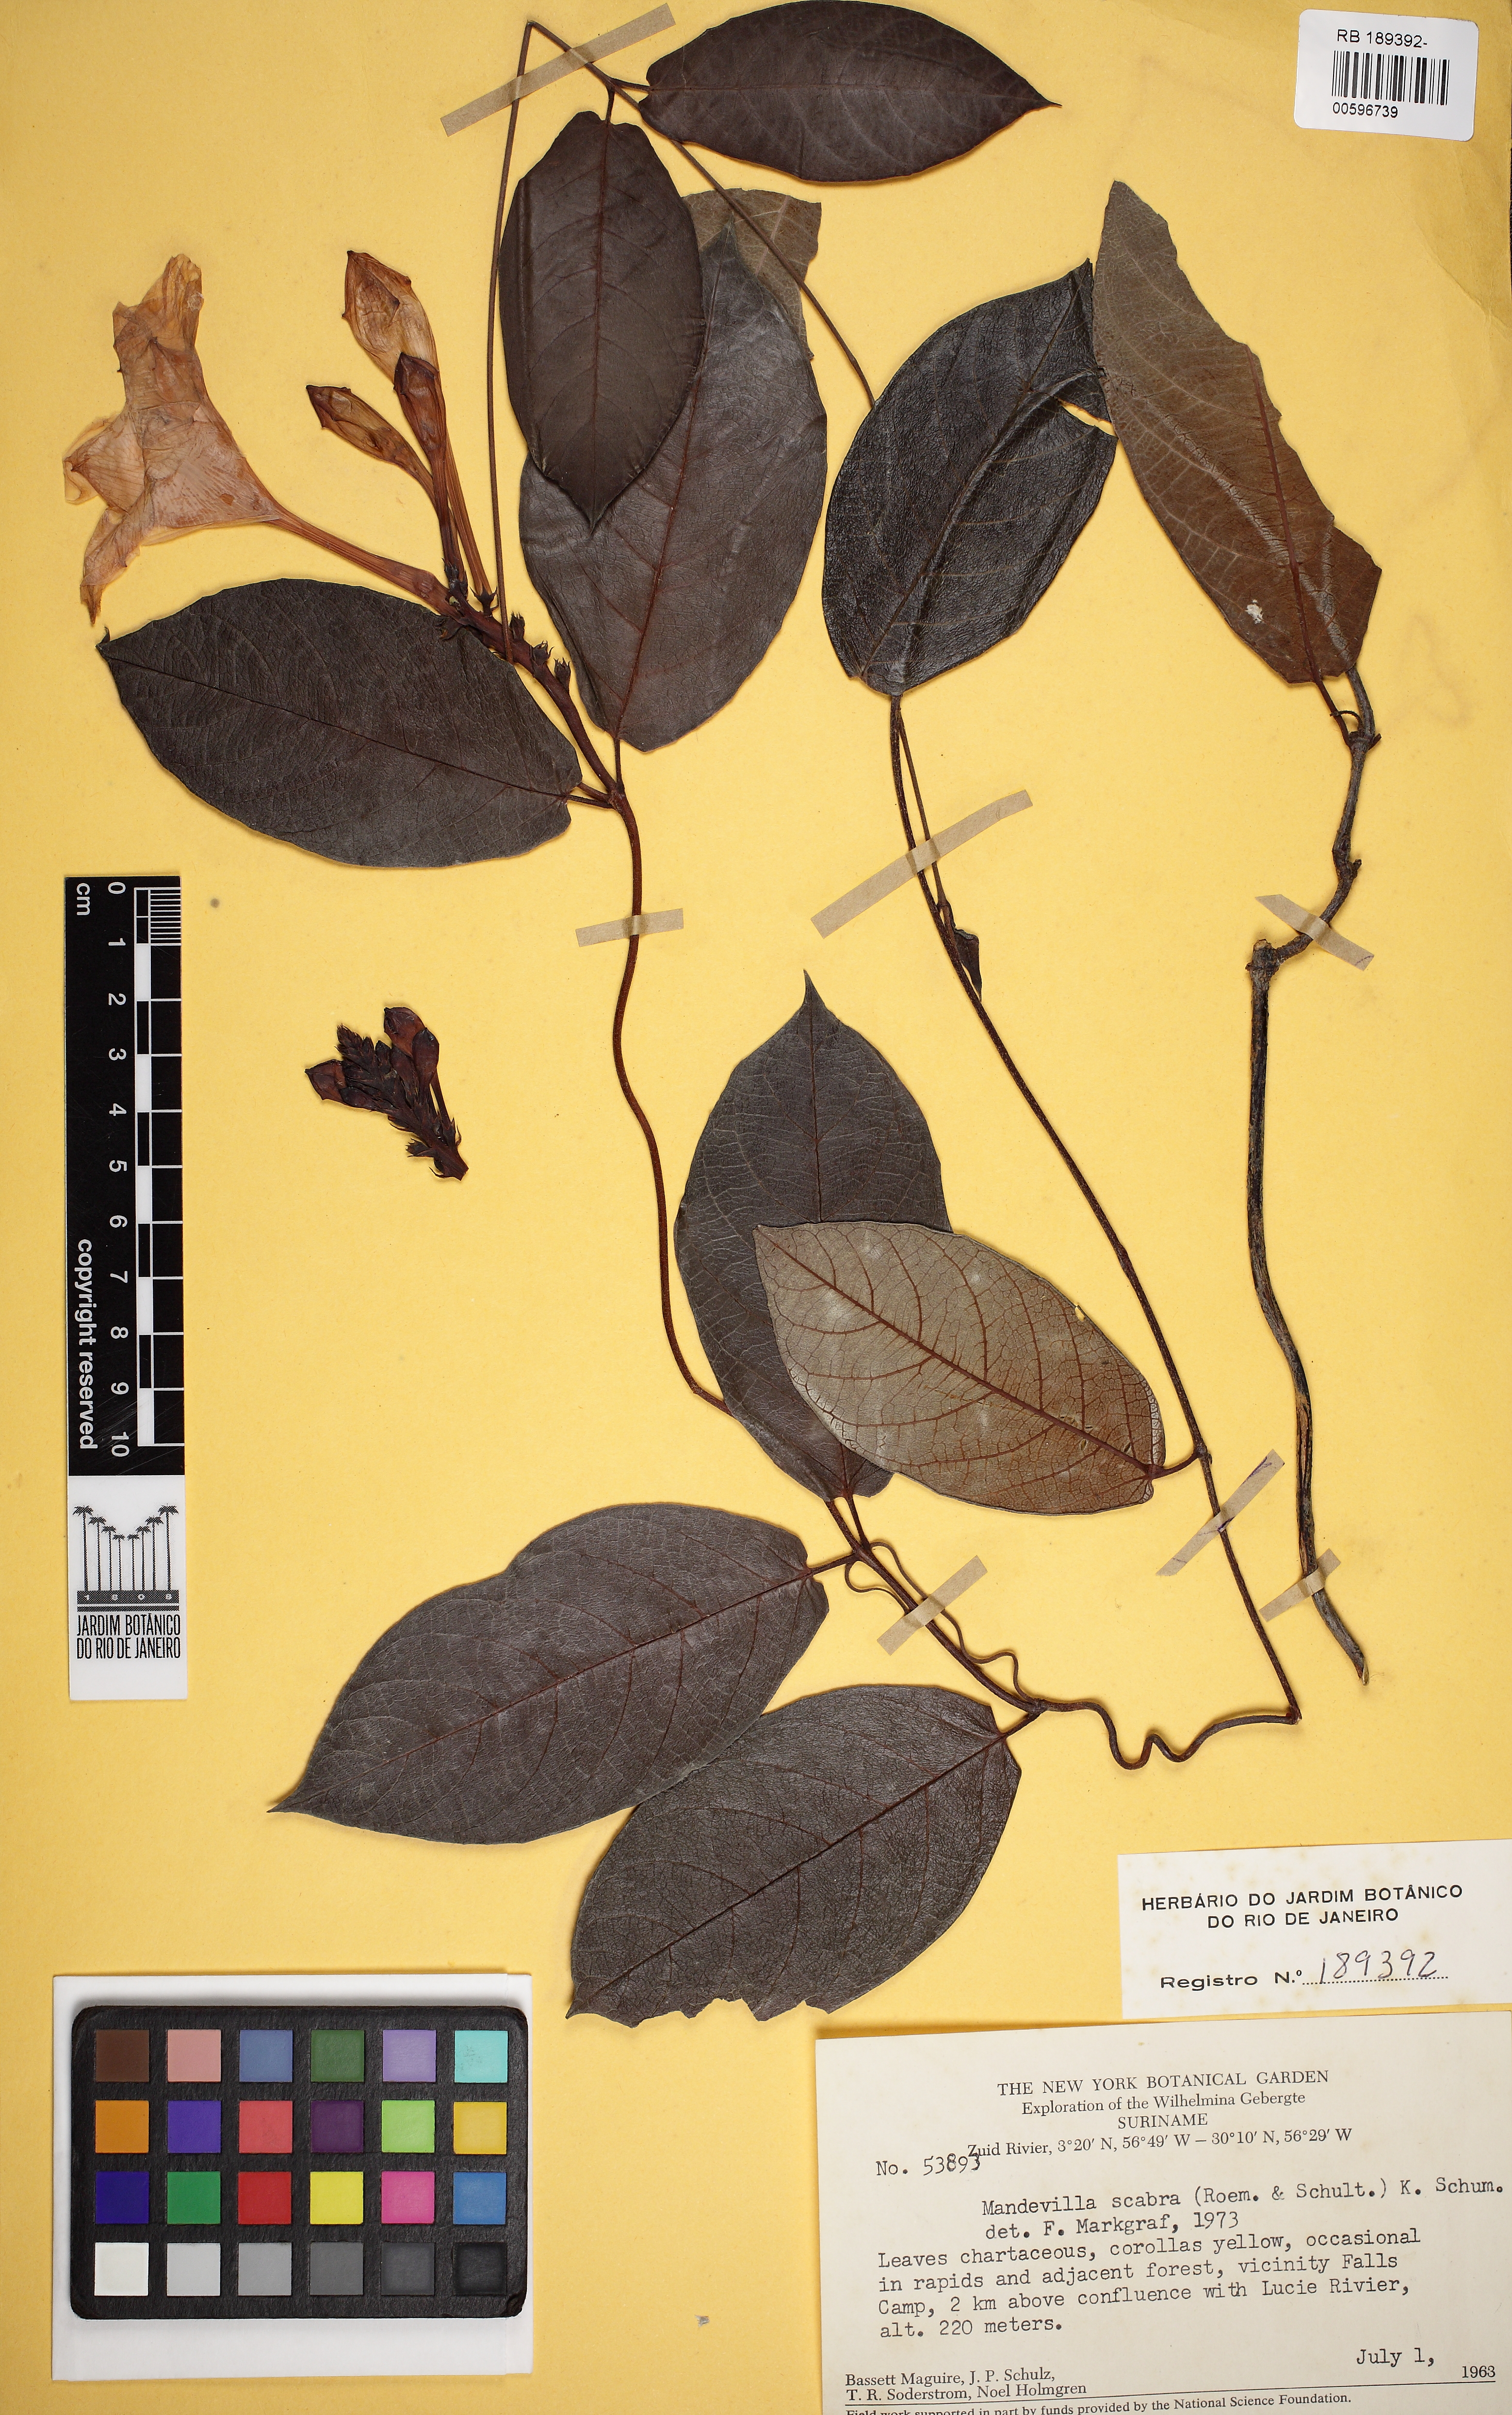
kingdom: Plantae
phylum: Tracheophyta
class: Magnoliopsida
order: Gentianales
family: Apocynaceae
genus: Mandevilla
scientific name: Mandevilla scabra
